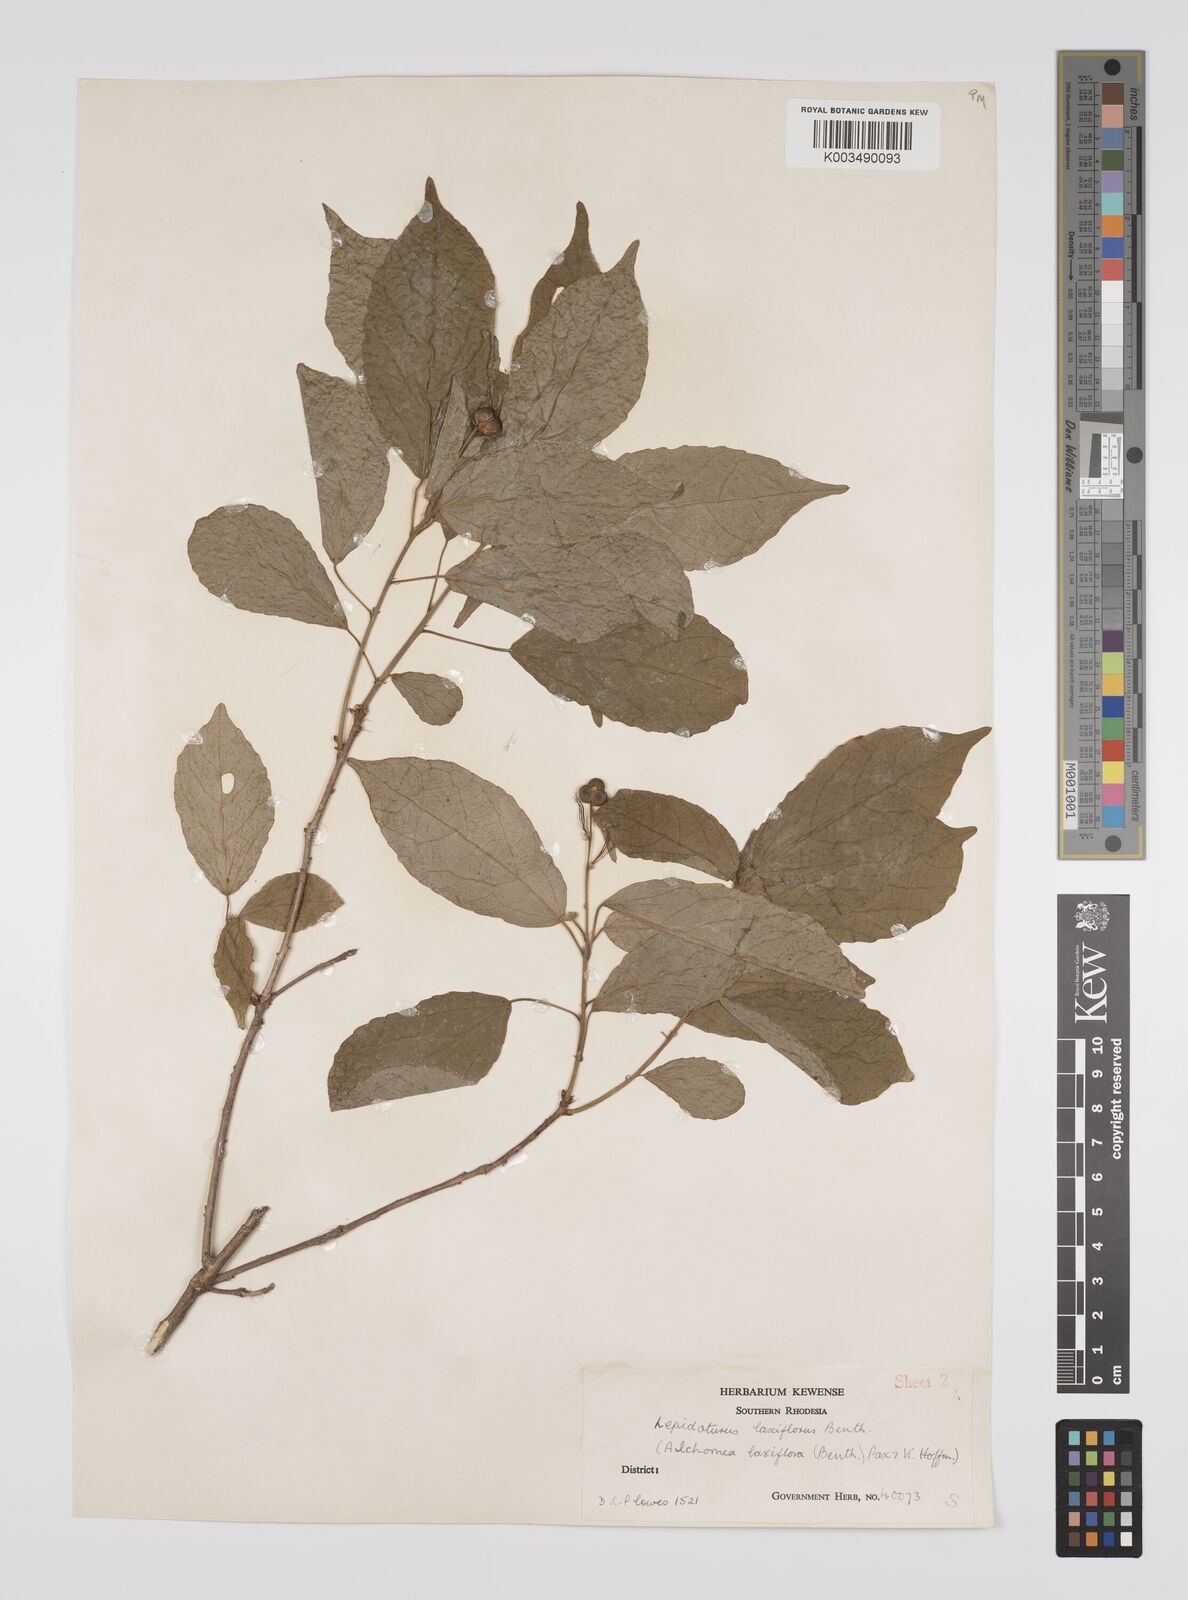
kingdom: Plantae
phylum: Tracheophyta
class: Magnoliopsida
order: Malpighiales
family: Euphorbiaceae
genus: Alchornea
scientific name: Alchornea laxiflora
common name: Lowveld bead-string
